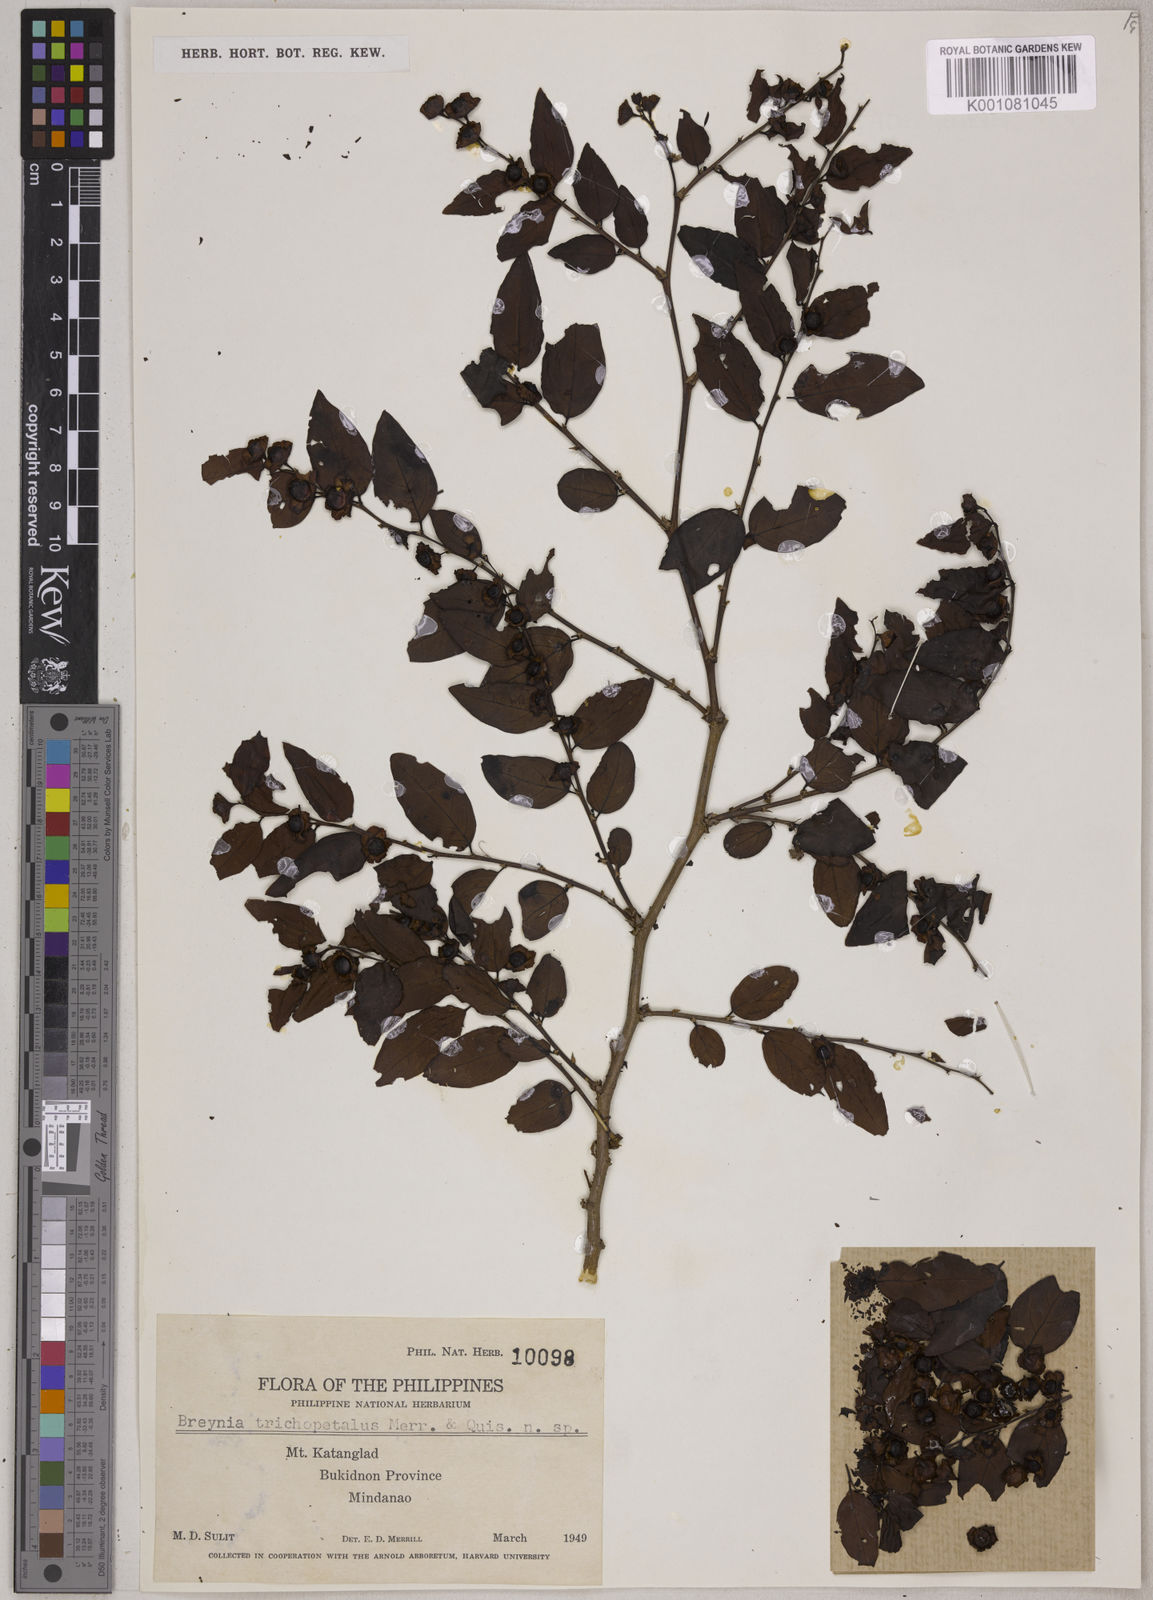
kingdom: Plantae
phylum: Tracheophyta
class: Magnoliopsida
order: Malpighiales
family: Phyllanthaceae
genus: Breynia
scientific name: Breynia
